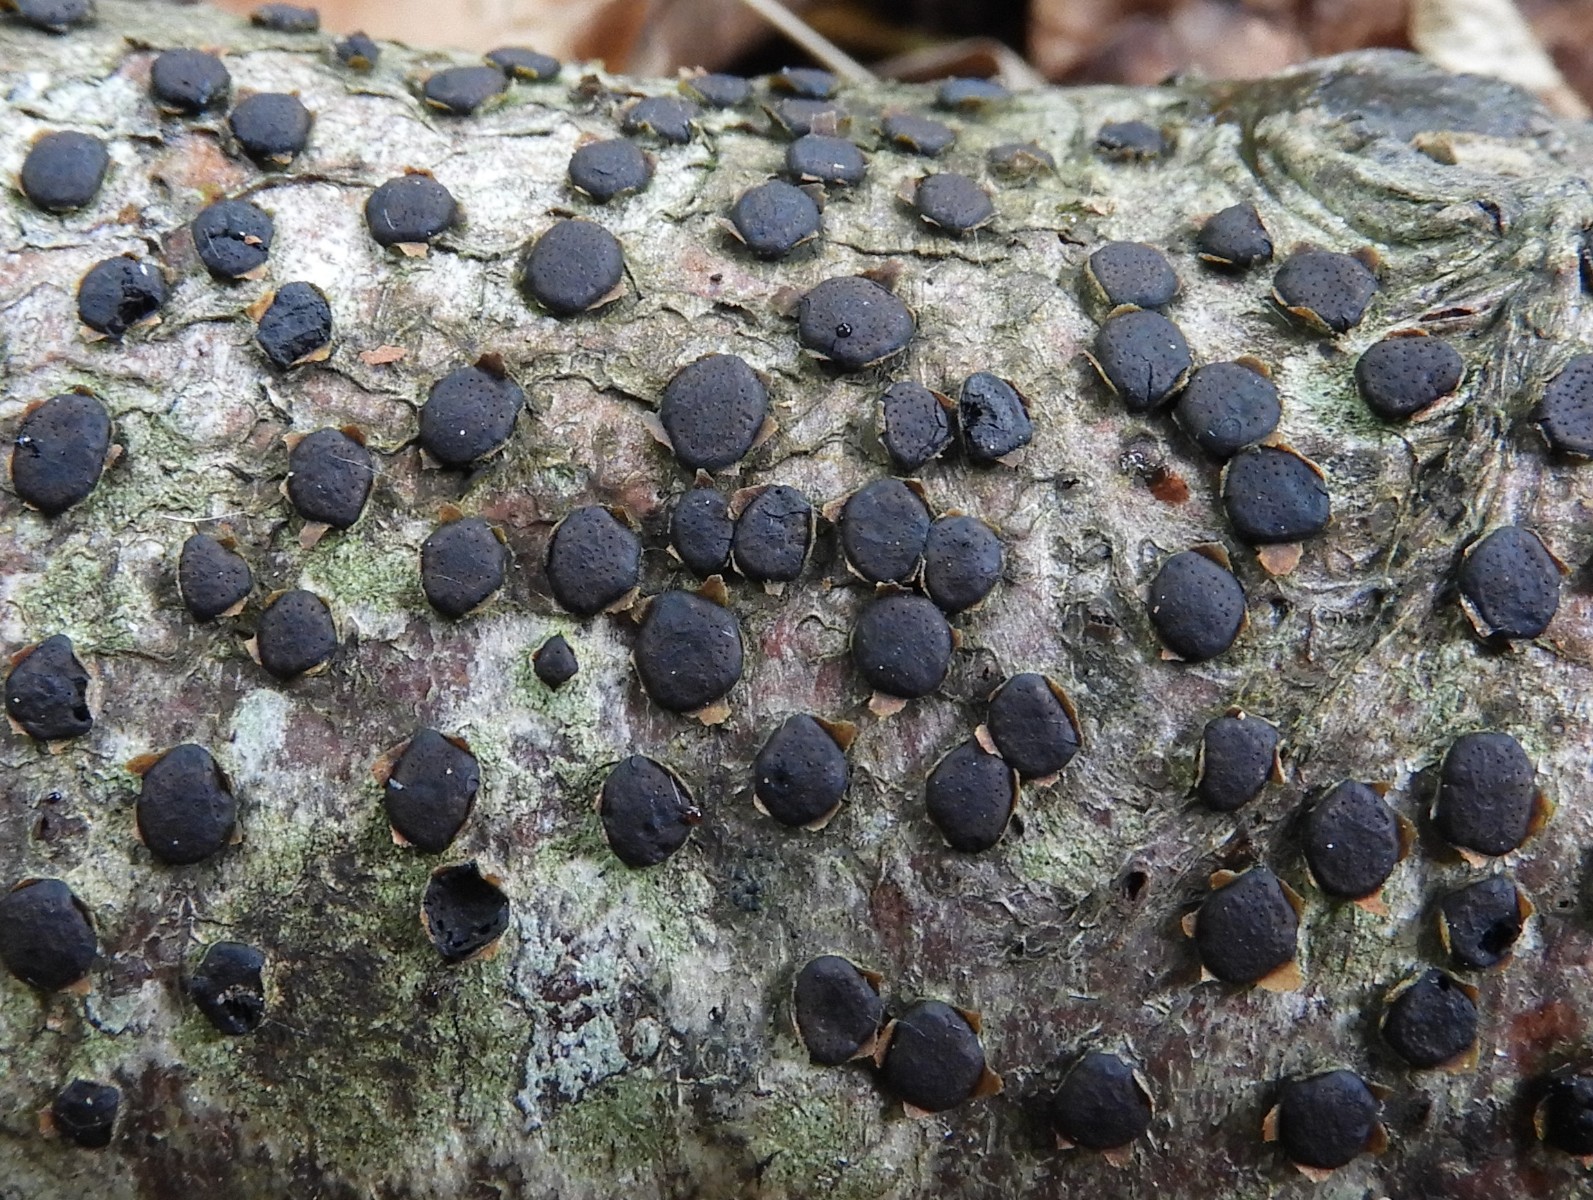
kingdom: Fungi
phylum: Ascomycota
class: Sordariomycetes
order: Xylariales
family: Diatrypaceae
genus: Diatrype
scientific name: Diatrype disciformis
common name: kant-kulskorpe
